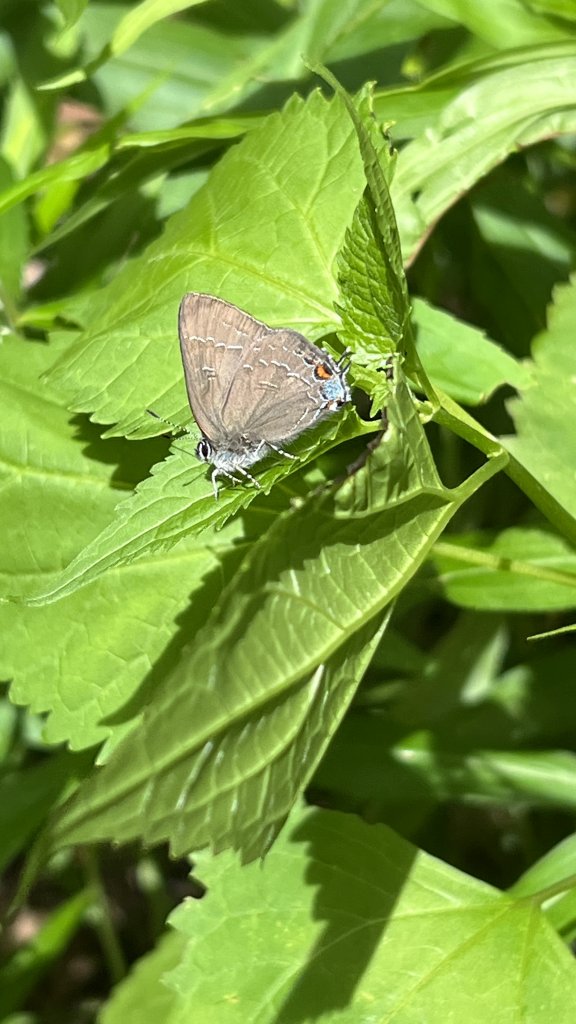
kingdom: Animalia
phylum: Arthropoda
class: Insecta
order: Lepidoptera
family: Lycaenidae
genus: Satyrium
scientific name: Satyrium calanus
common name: Banded Hairstreak
